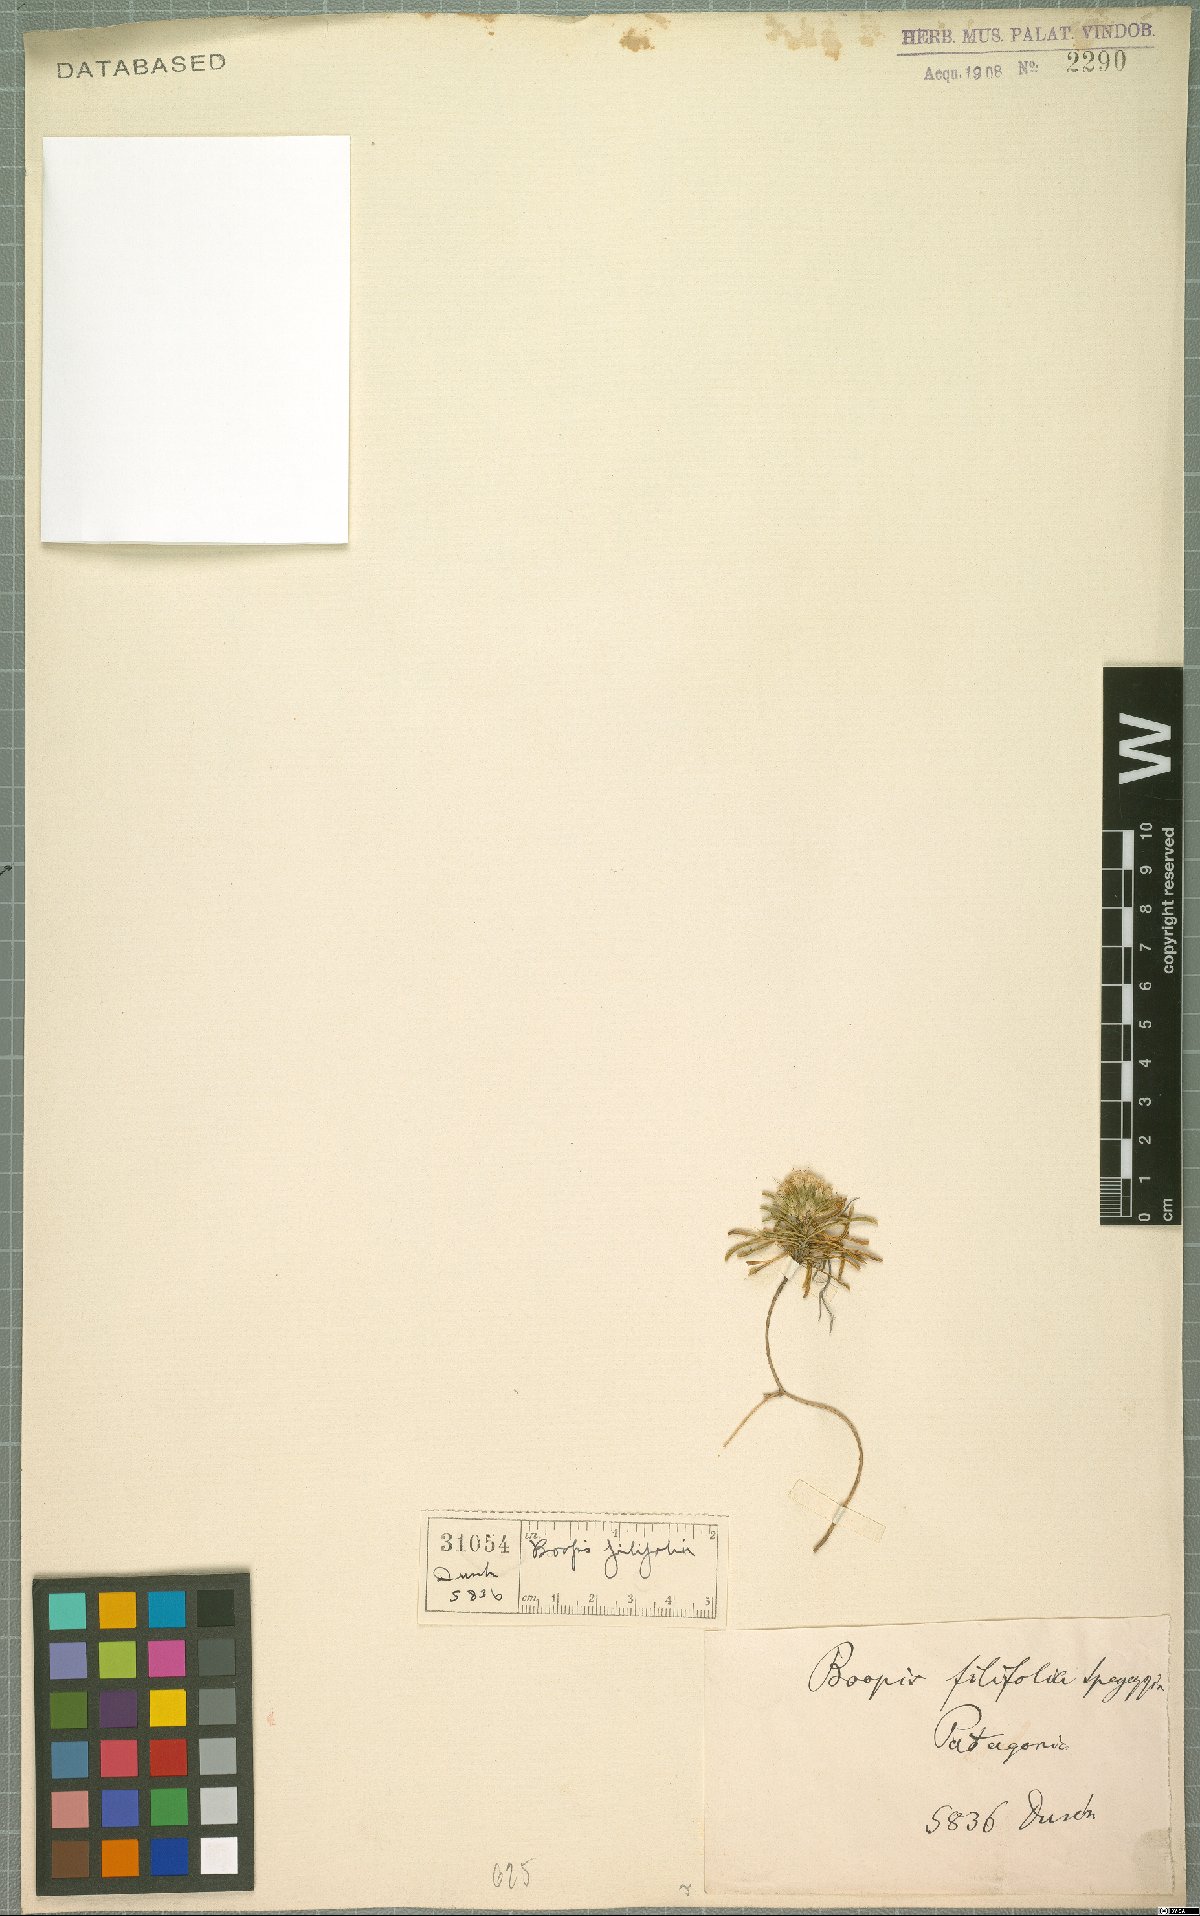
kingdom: Plantae
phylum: Tracheophyta
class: Magnoliopsida
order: Asterales
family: Calyceraceae
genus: Moschopsis
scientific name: Moschopsis filifolia
